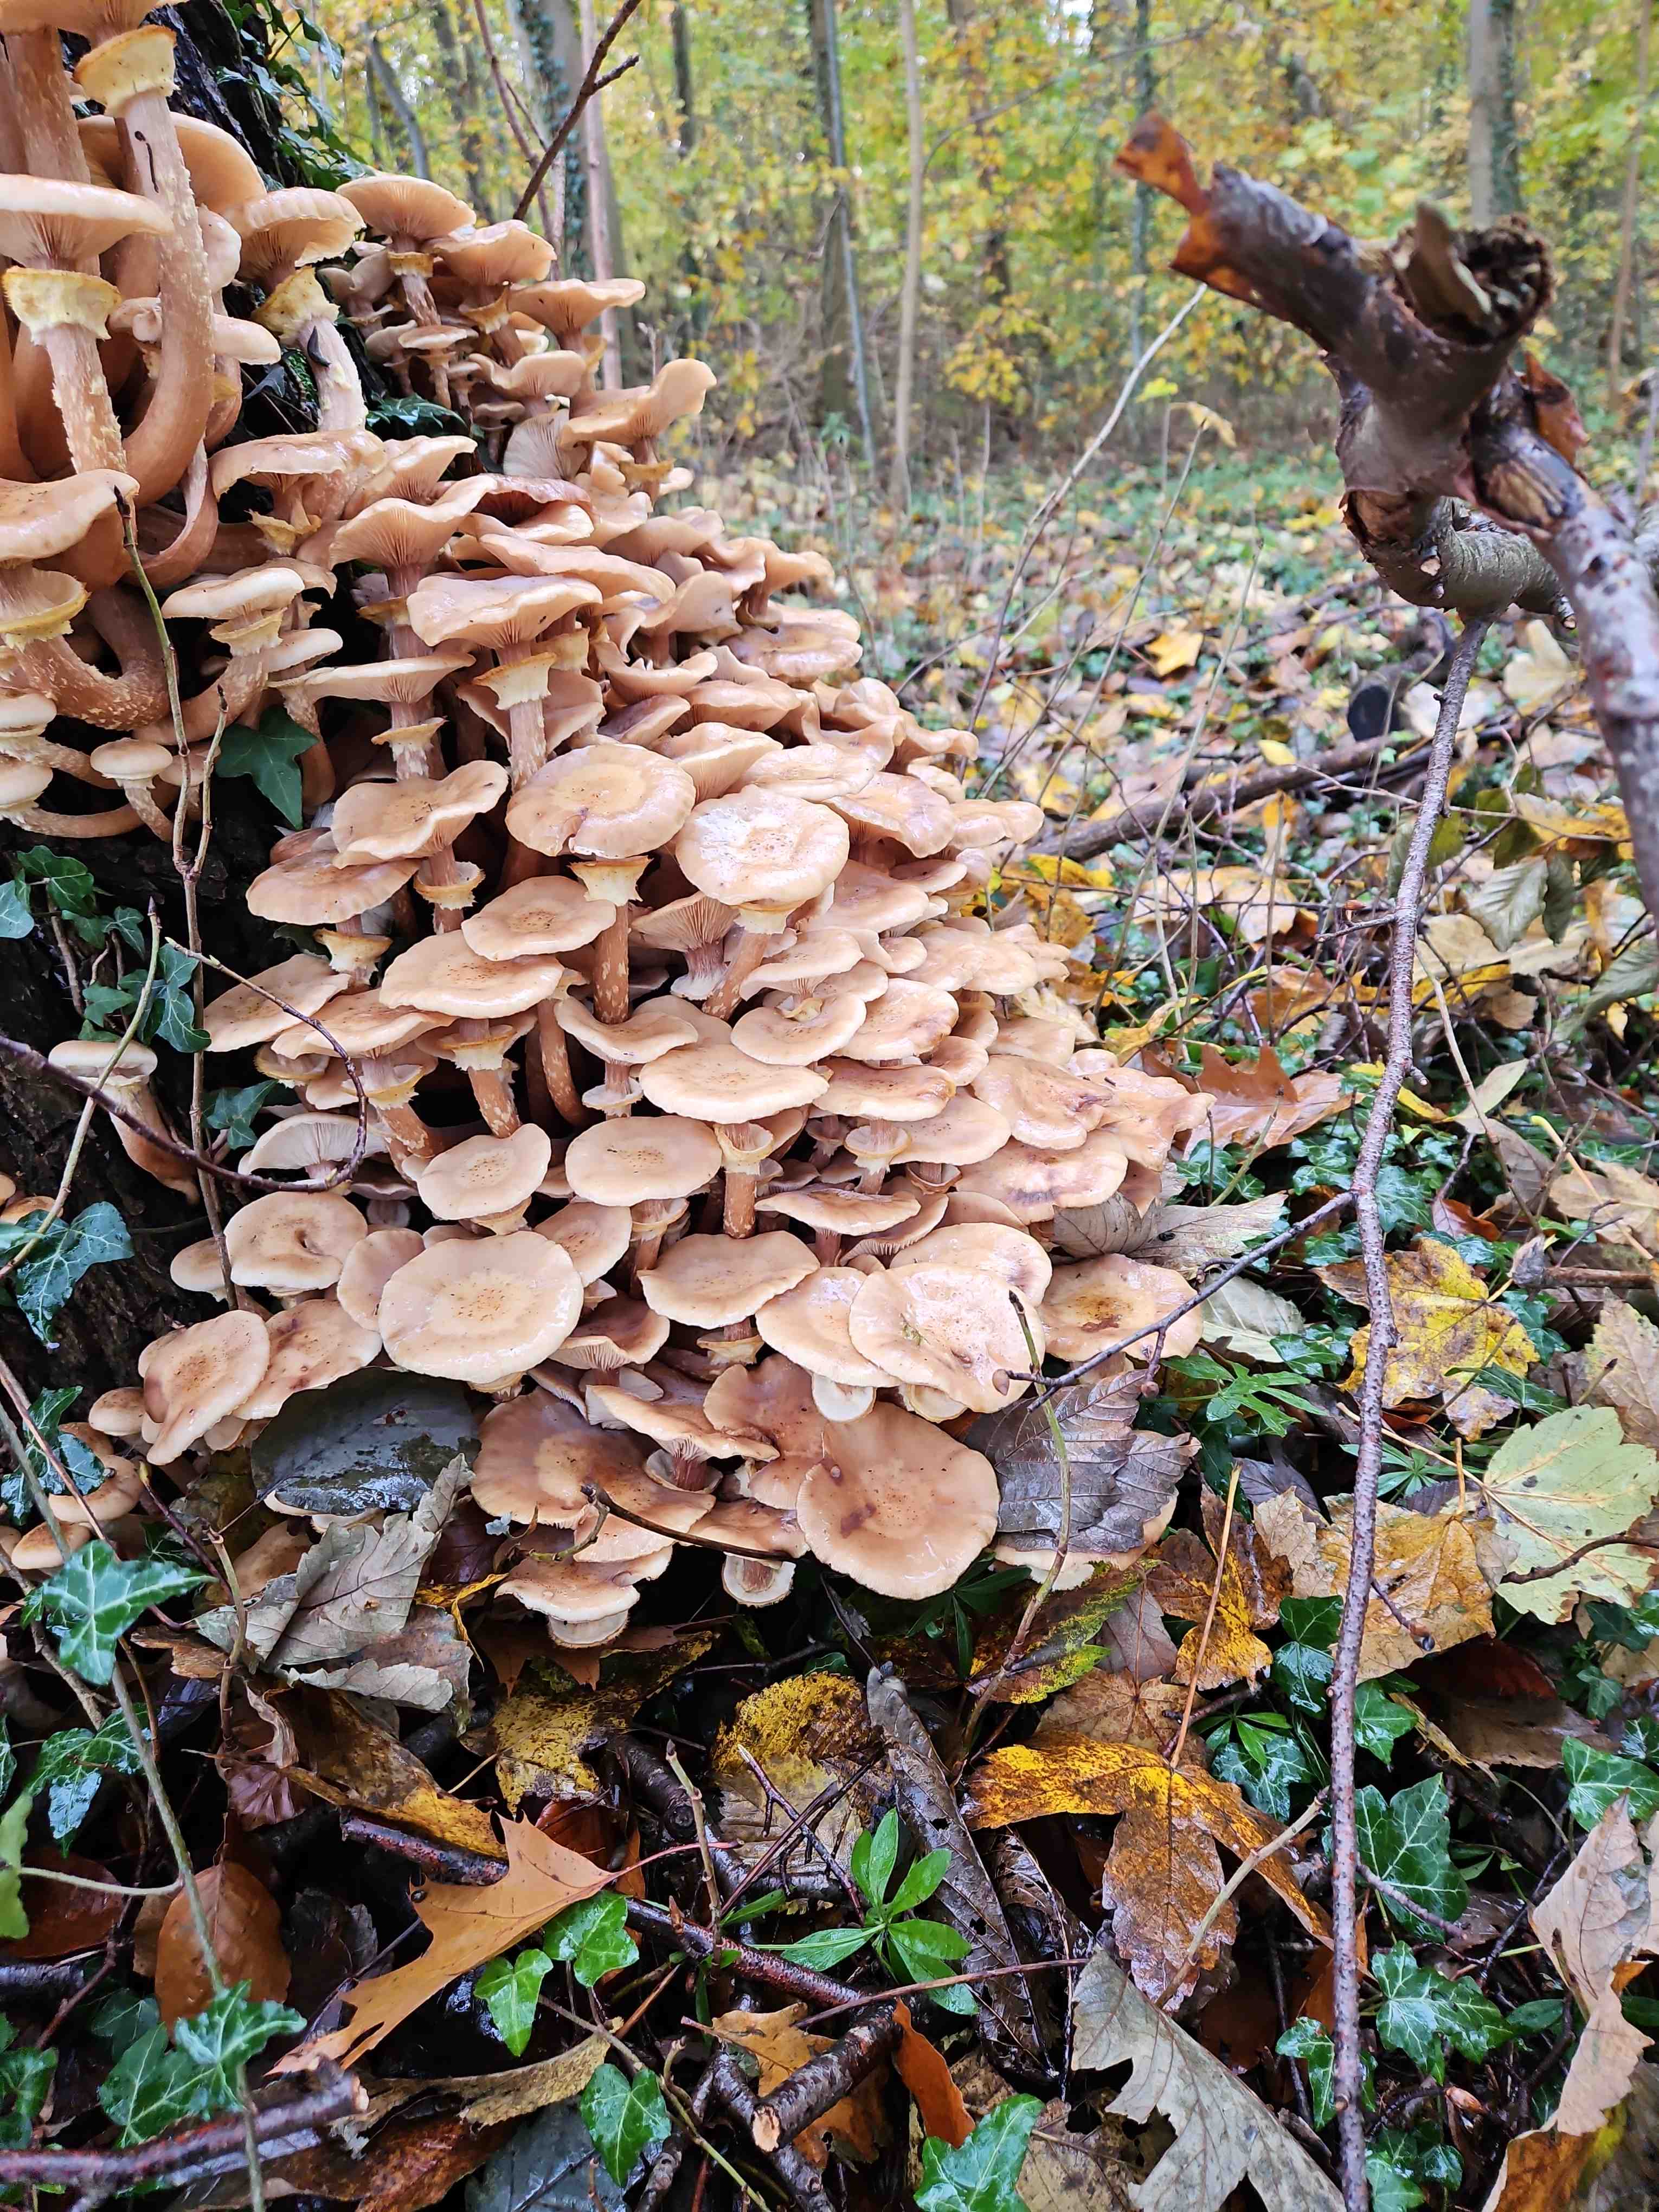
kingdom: Fungi
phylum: Basidiomycota
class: Agaricomycetes
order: Agaricales
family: Physalacriaceae
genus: Armillaria
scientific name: Armillaria lutea
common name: køllestokket honningsvamp
